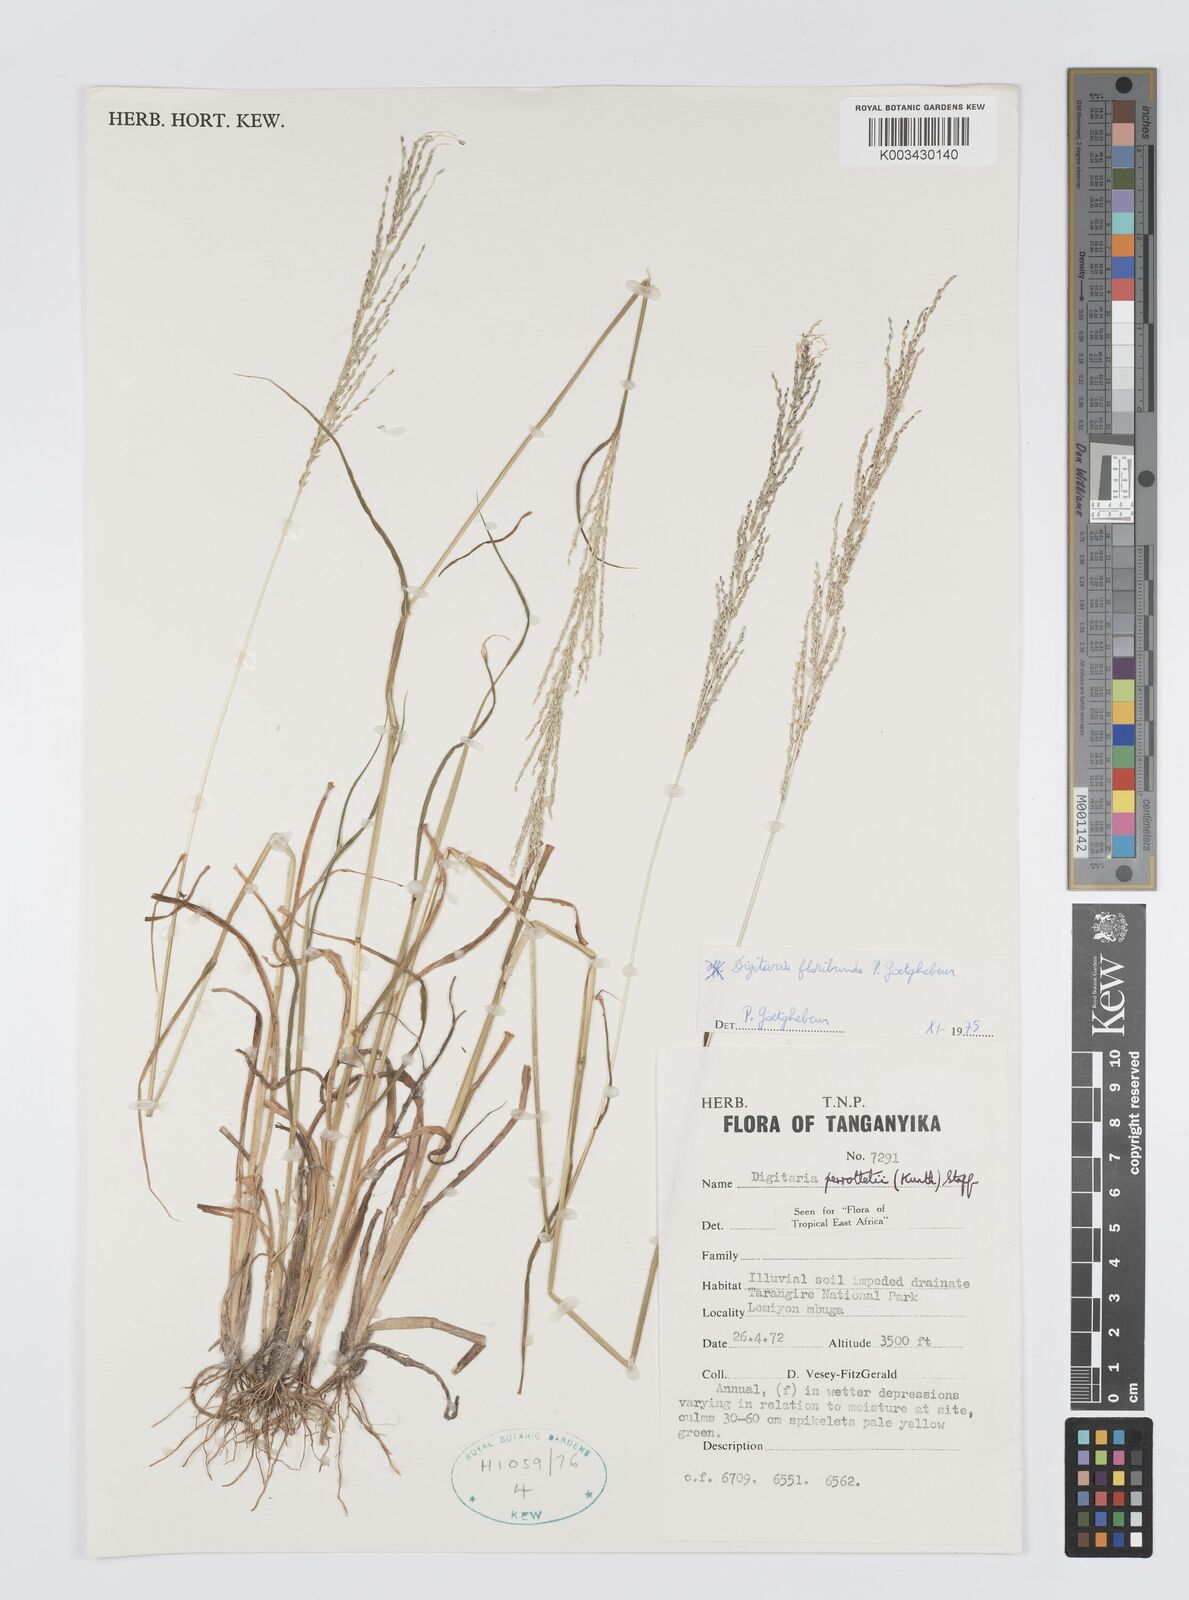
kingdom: Plantae
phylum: Tracheophyta
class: Liliopsida
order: Poales
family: Poaceae
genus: Digitaria
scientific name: Digitaria perrottetii
